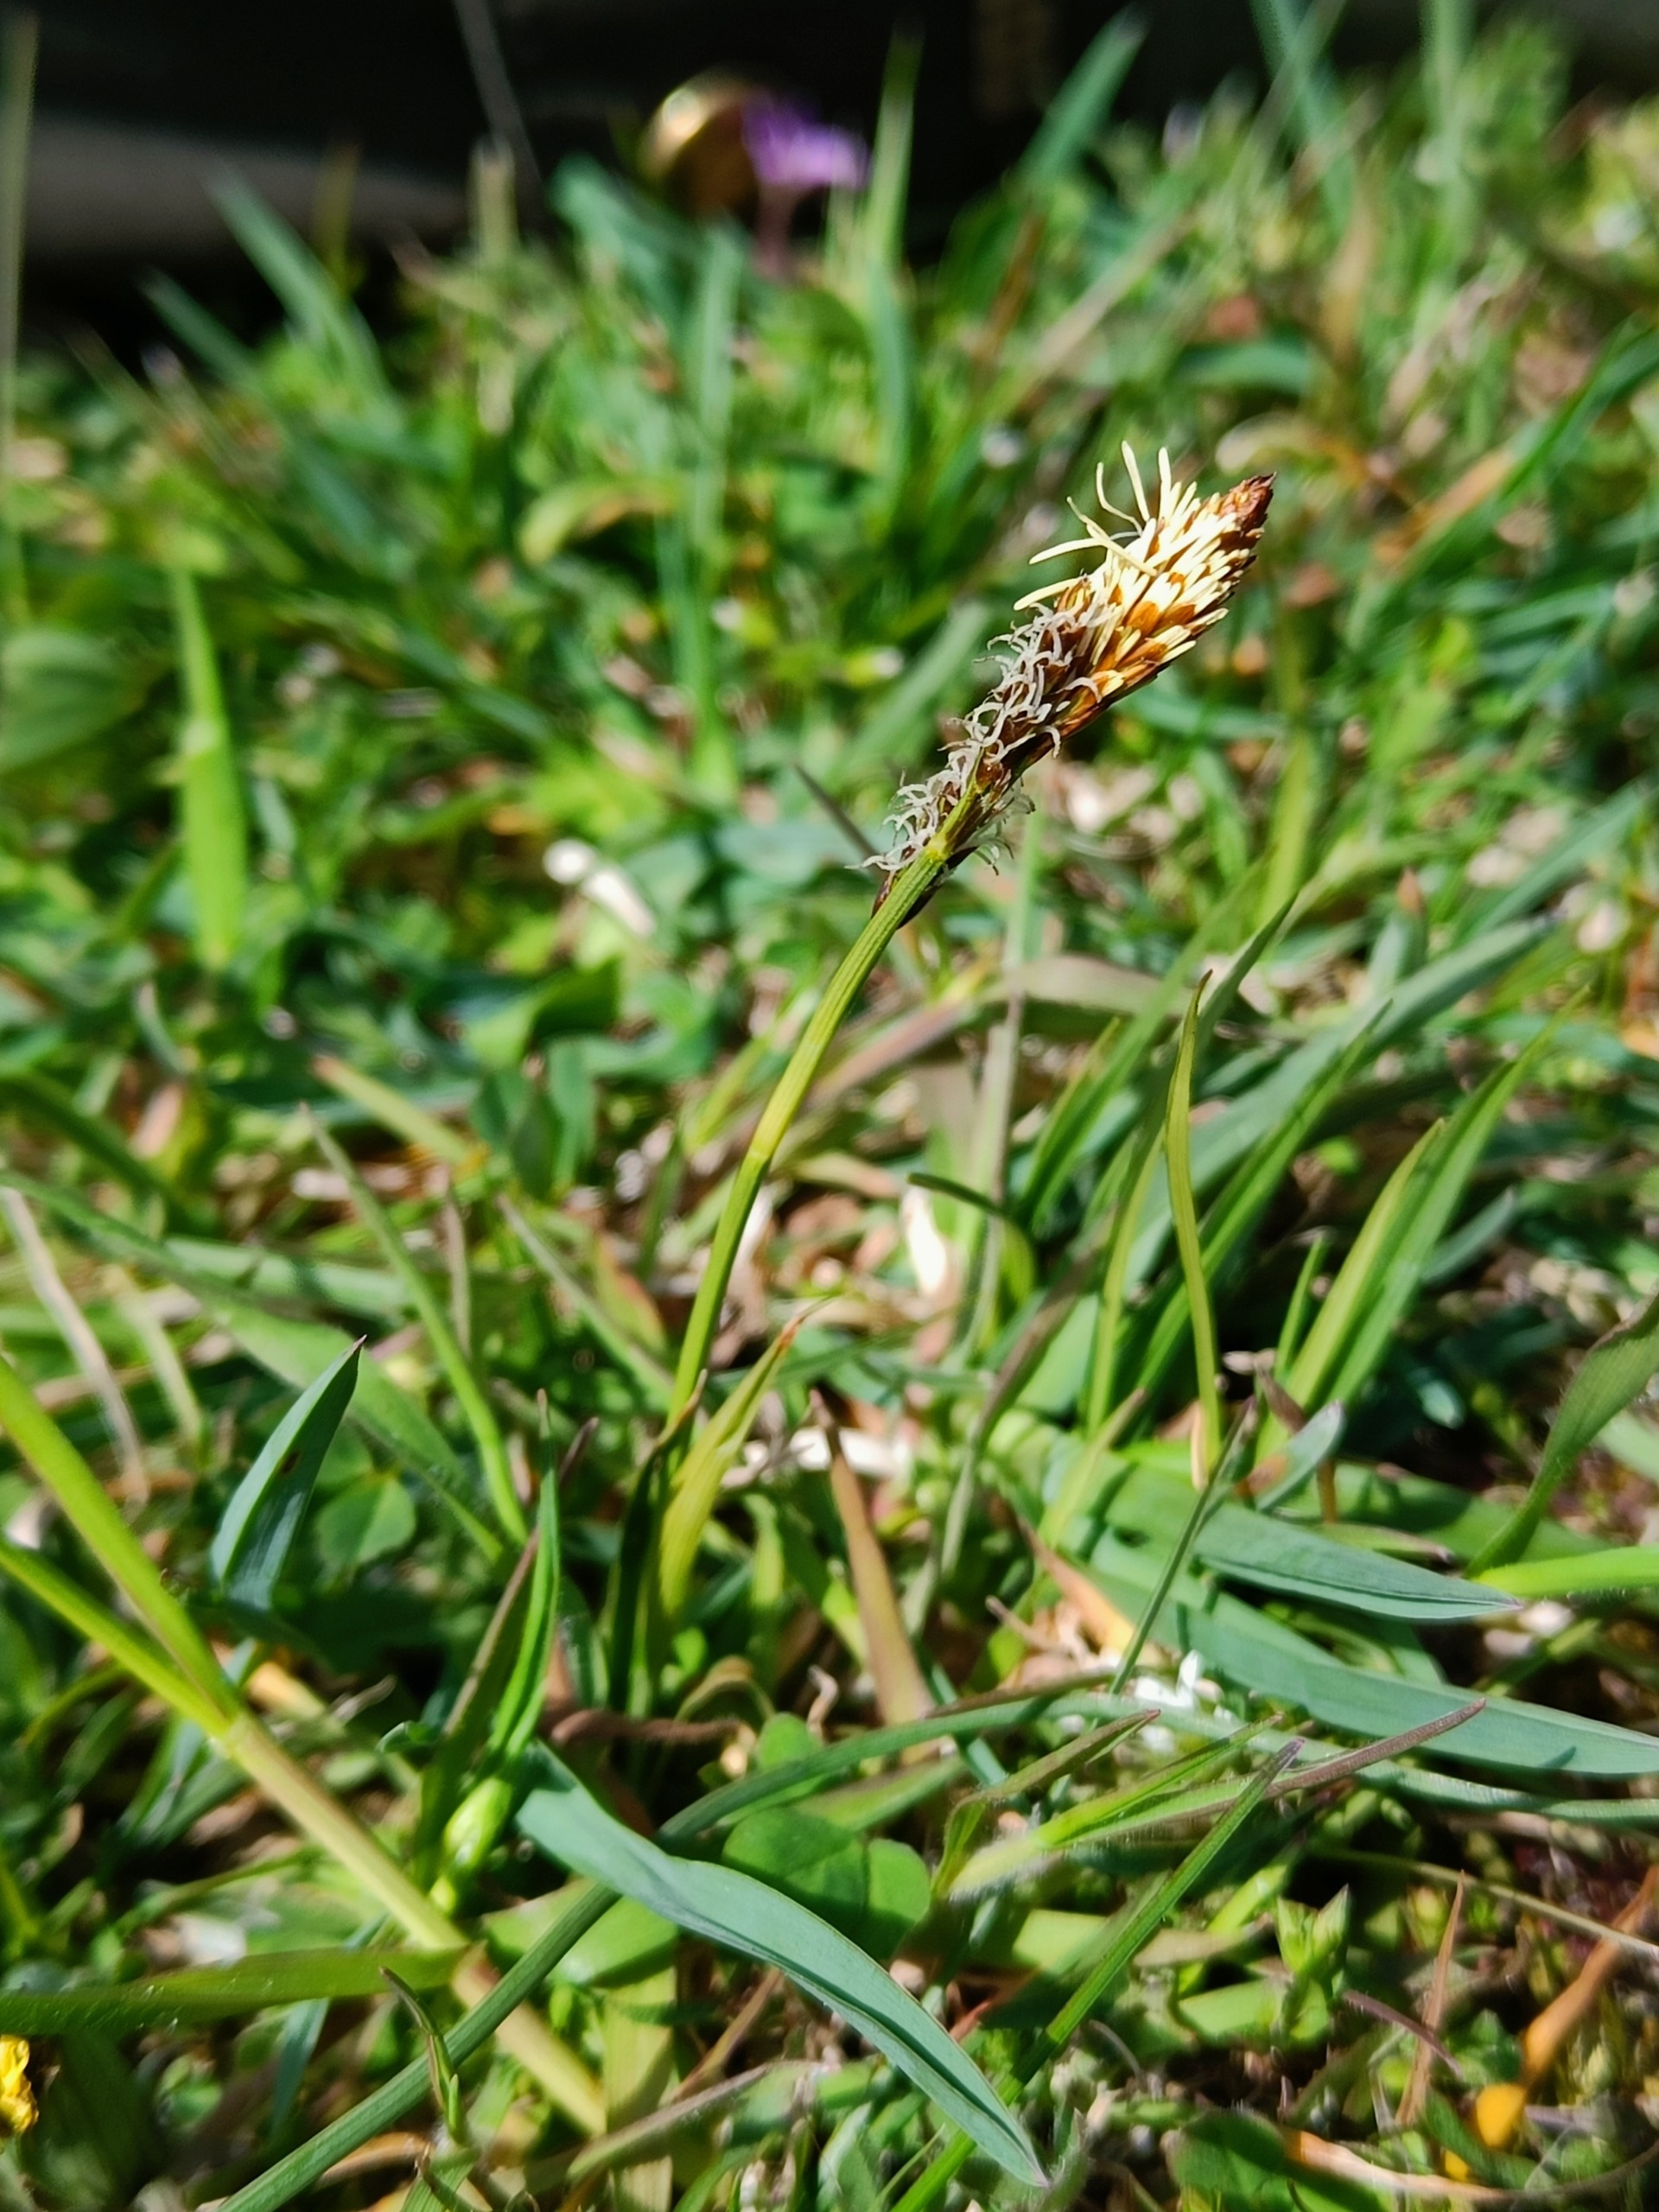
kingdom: Plantae
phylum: Tracheophyta
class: Liliopsida
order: Poales
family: Cyperaceae
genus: Carex
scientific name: Carex caryophyllea
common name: Vår-star
